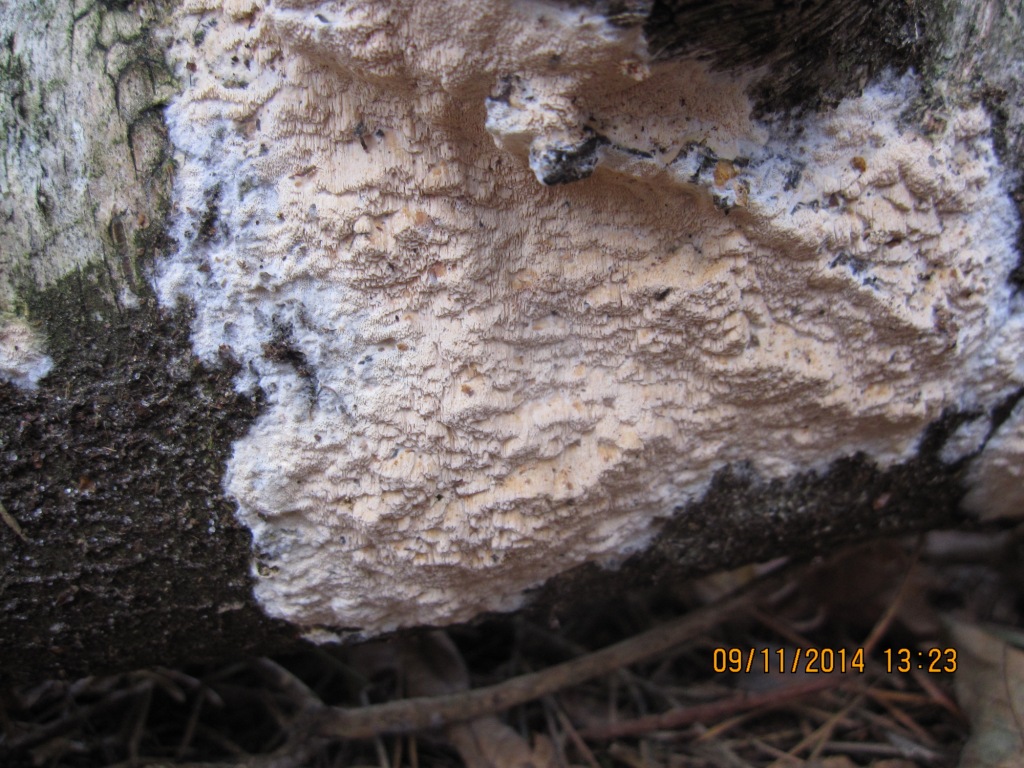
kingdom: Fungi
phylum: Basidiomycota
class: Agaricomycetes
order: Hymenochaetales
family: Schizoporaceae
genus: Xylodon
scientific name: Xylodon flaviporus
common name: gulporet tandsvamp
